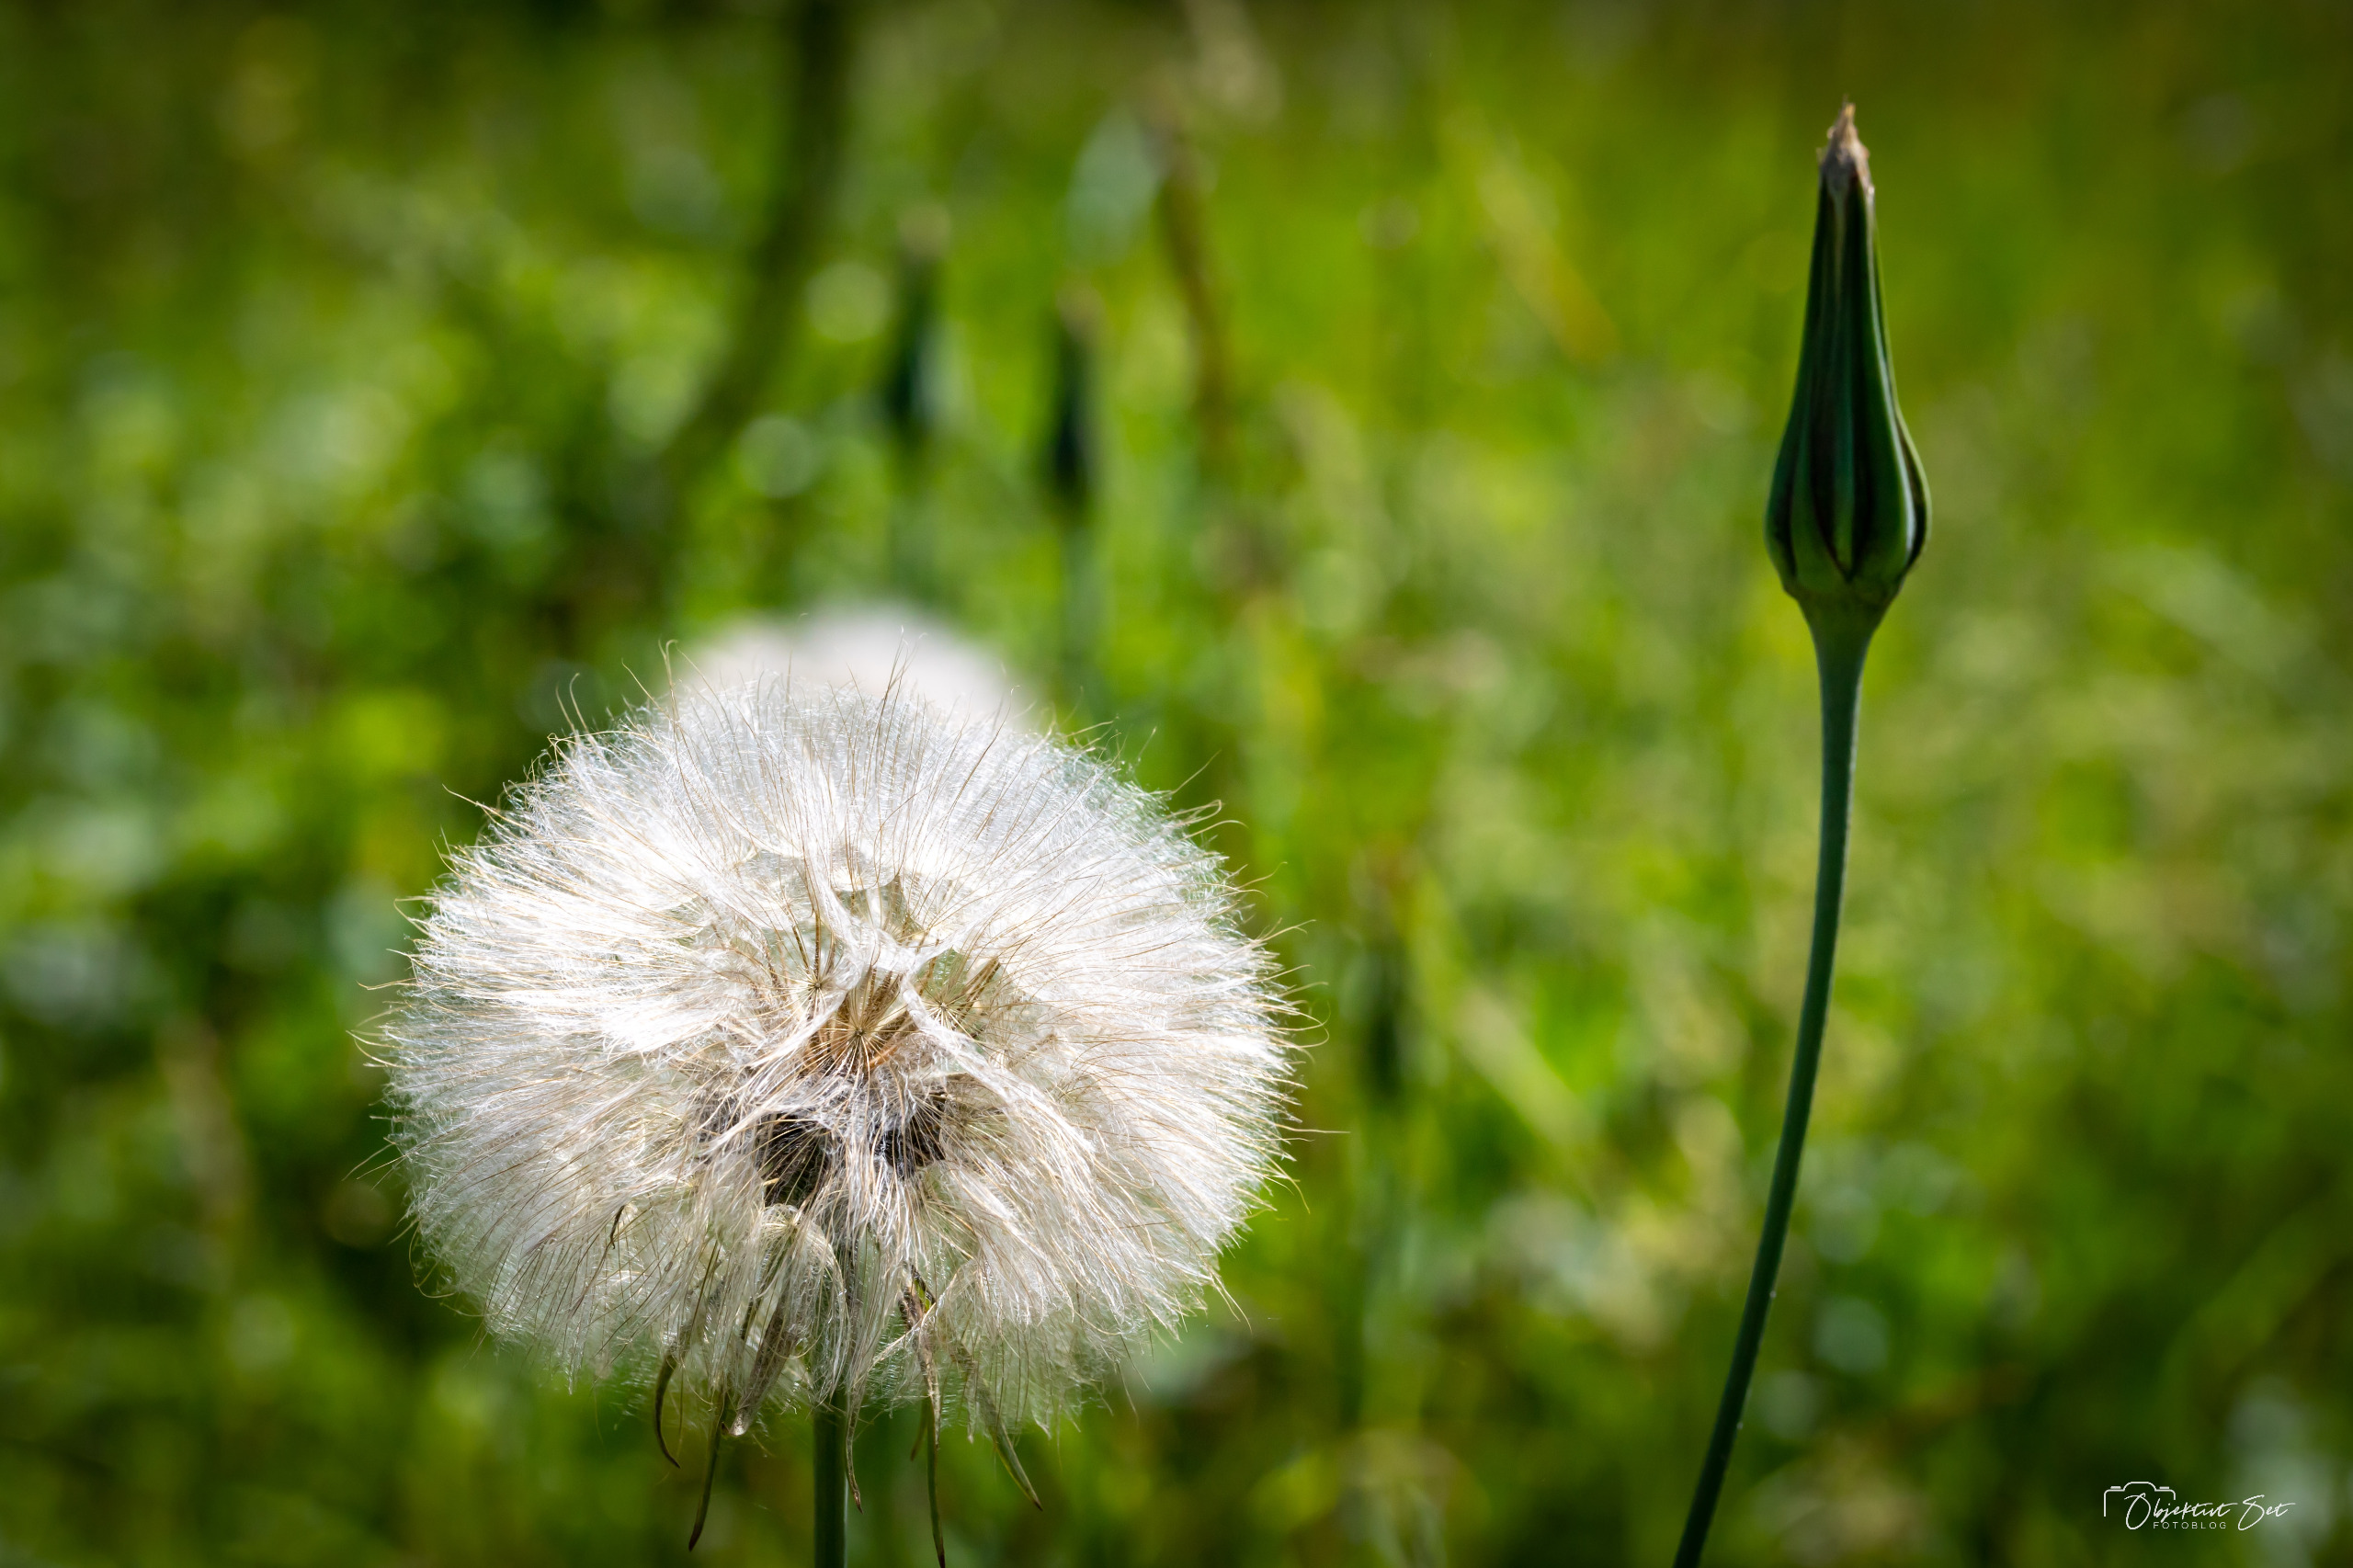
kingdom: Plantae
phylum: Tracheophyta
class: Magnoliopsida
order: Asterales
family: Asteraceae
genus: Tragopogon
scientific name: Tragopogon pratensis
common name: Gedeskæg
